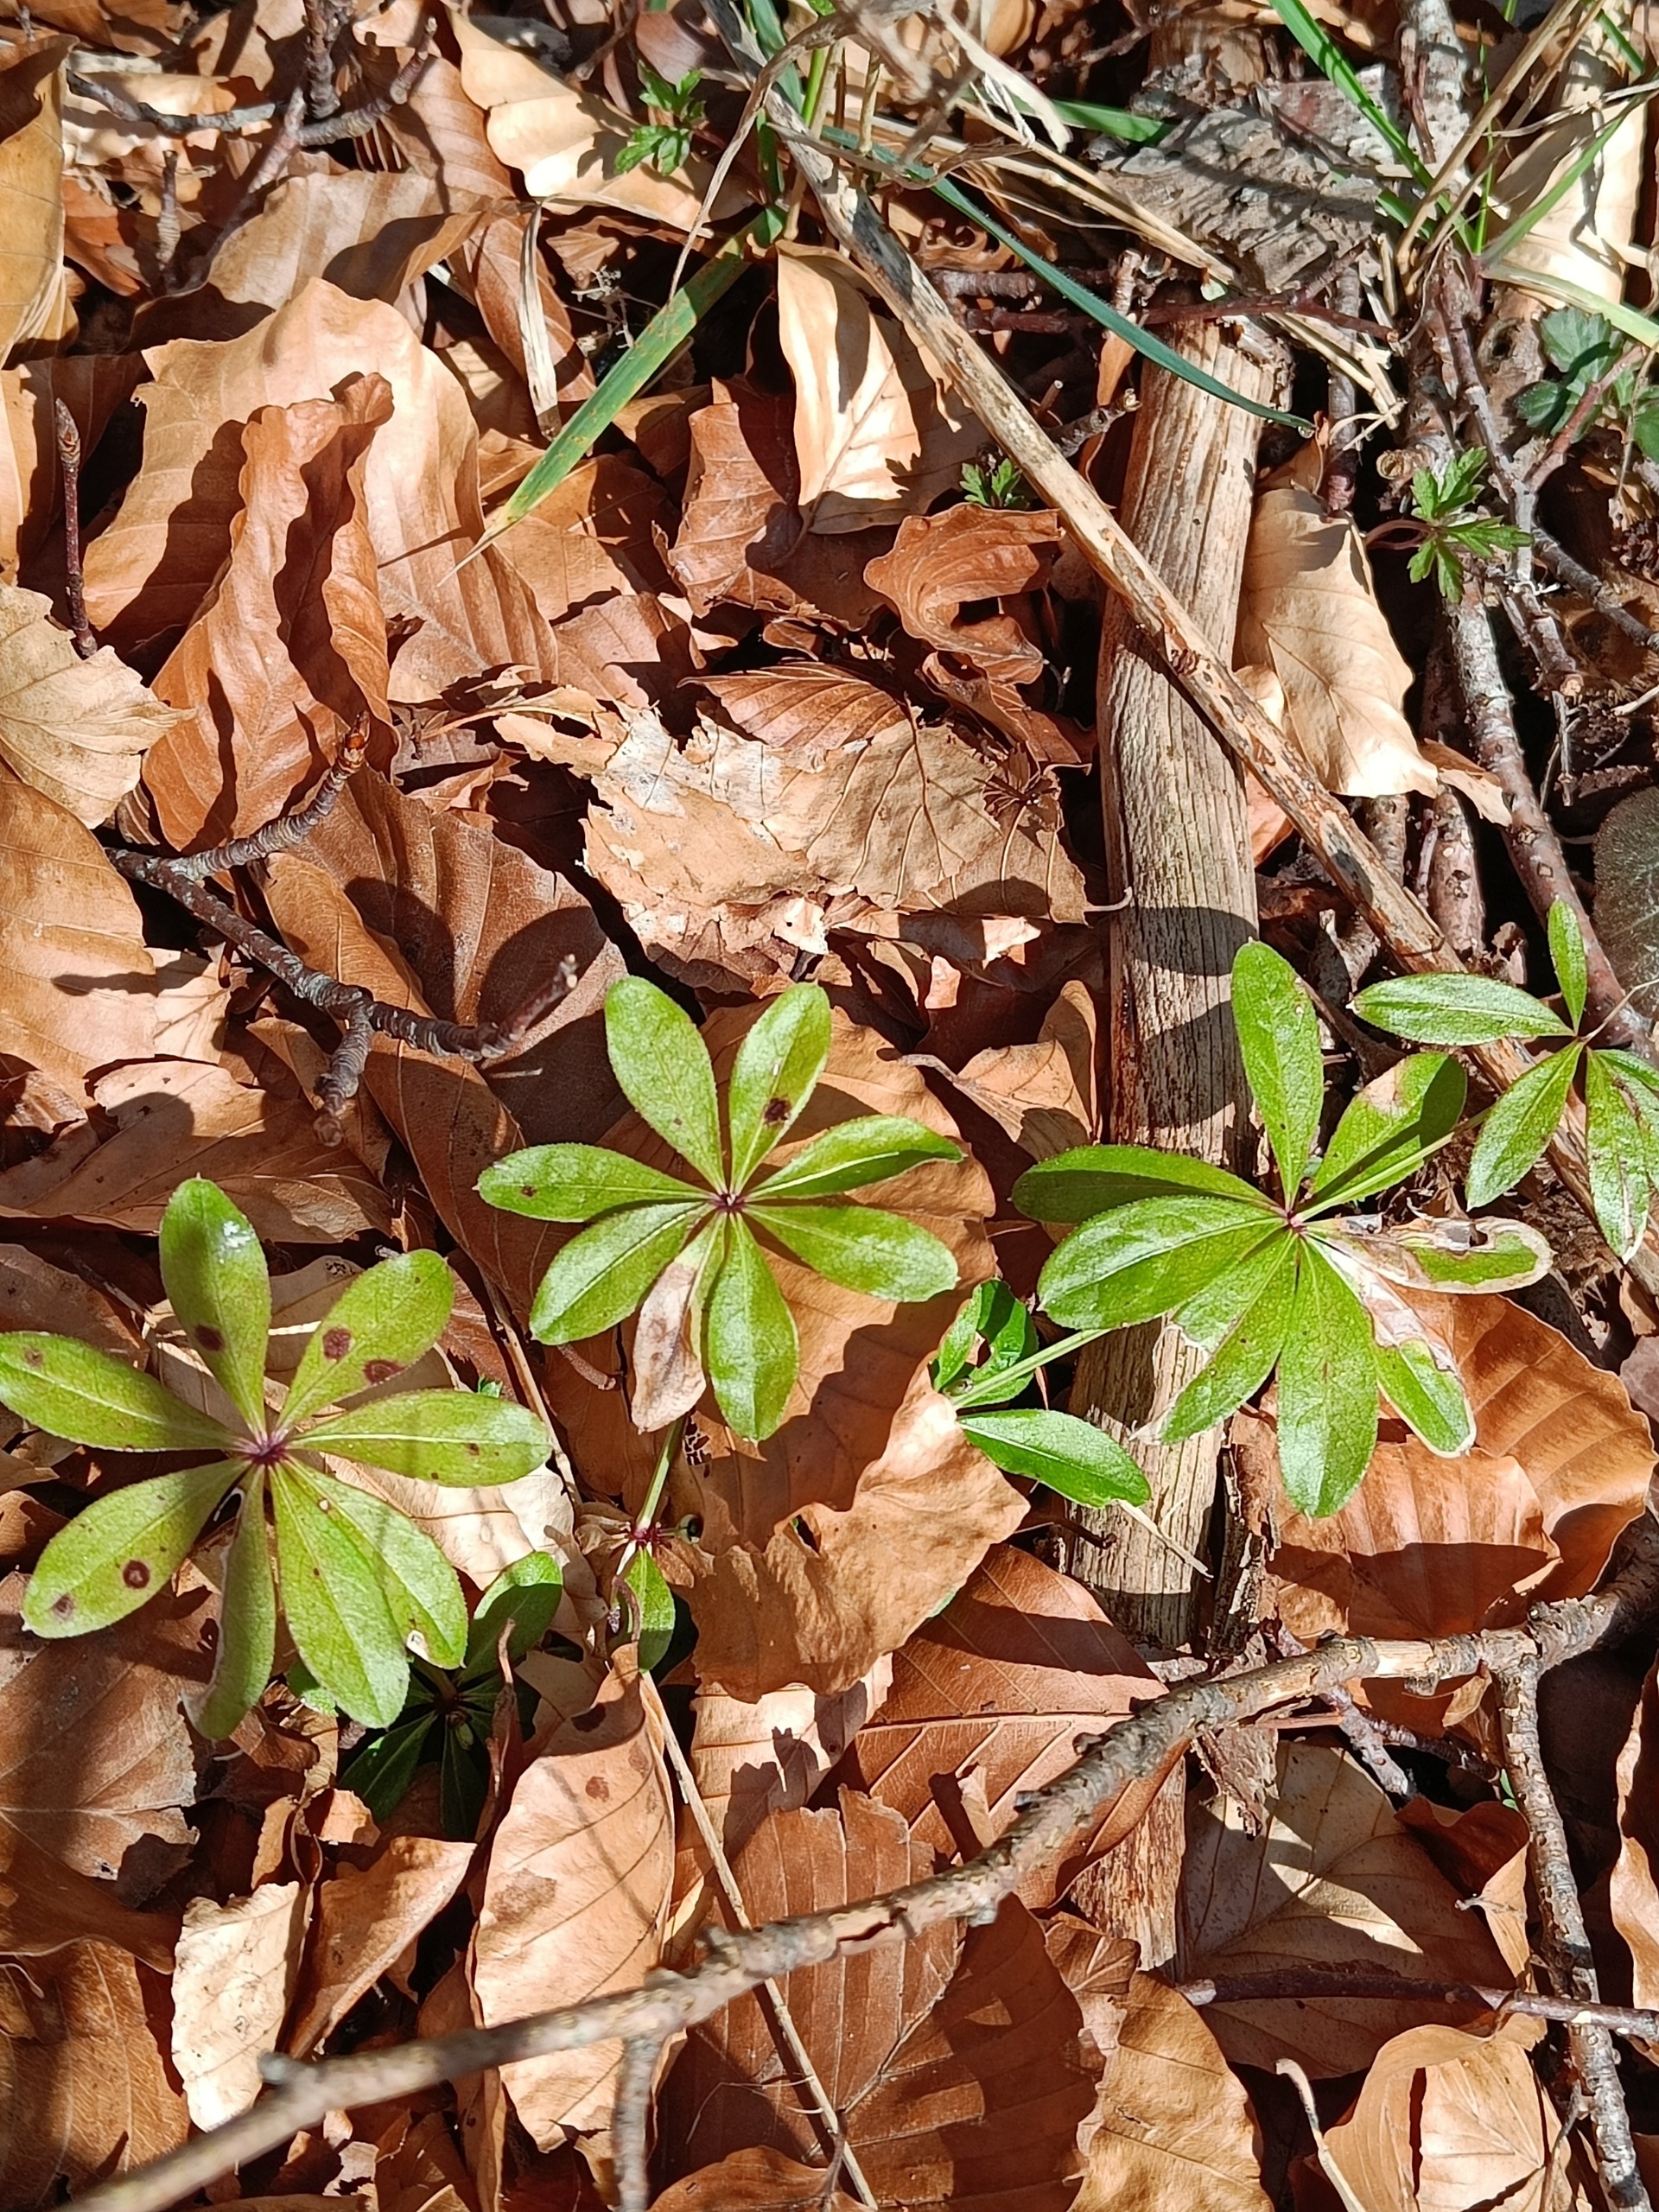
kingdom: Plantae
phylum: Tracheophyta
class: Magnoliopsida
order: Gentianales
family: Rubiaceae
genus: Galium
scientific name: Galium odoratum
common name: Skovmærke
